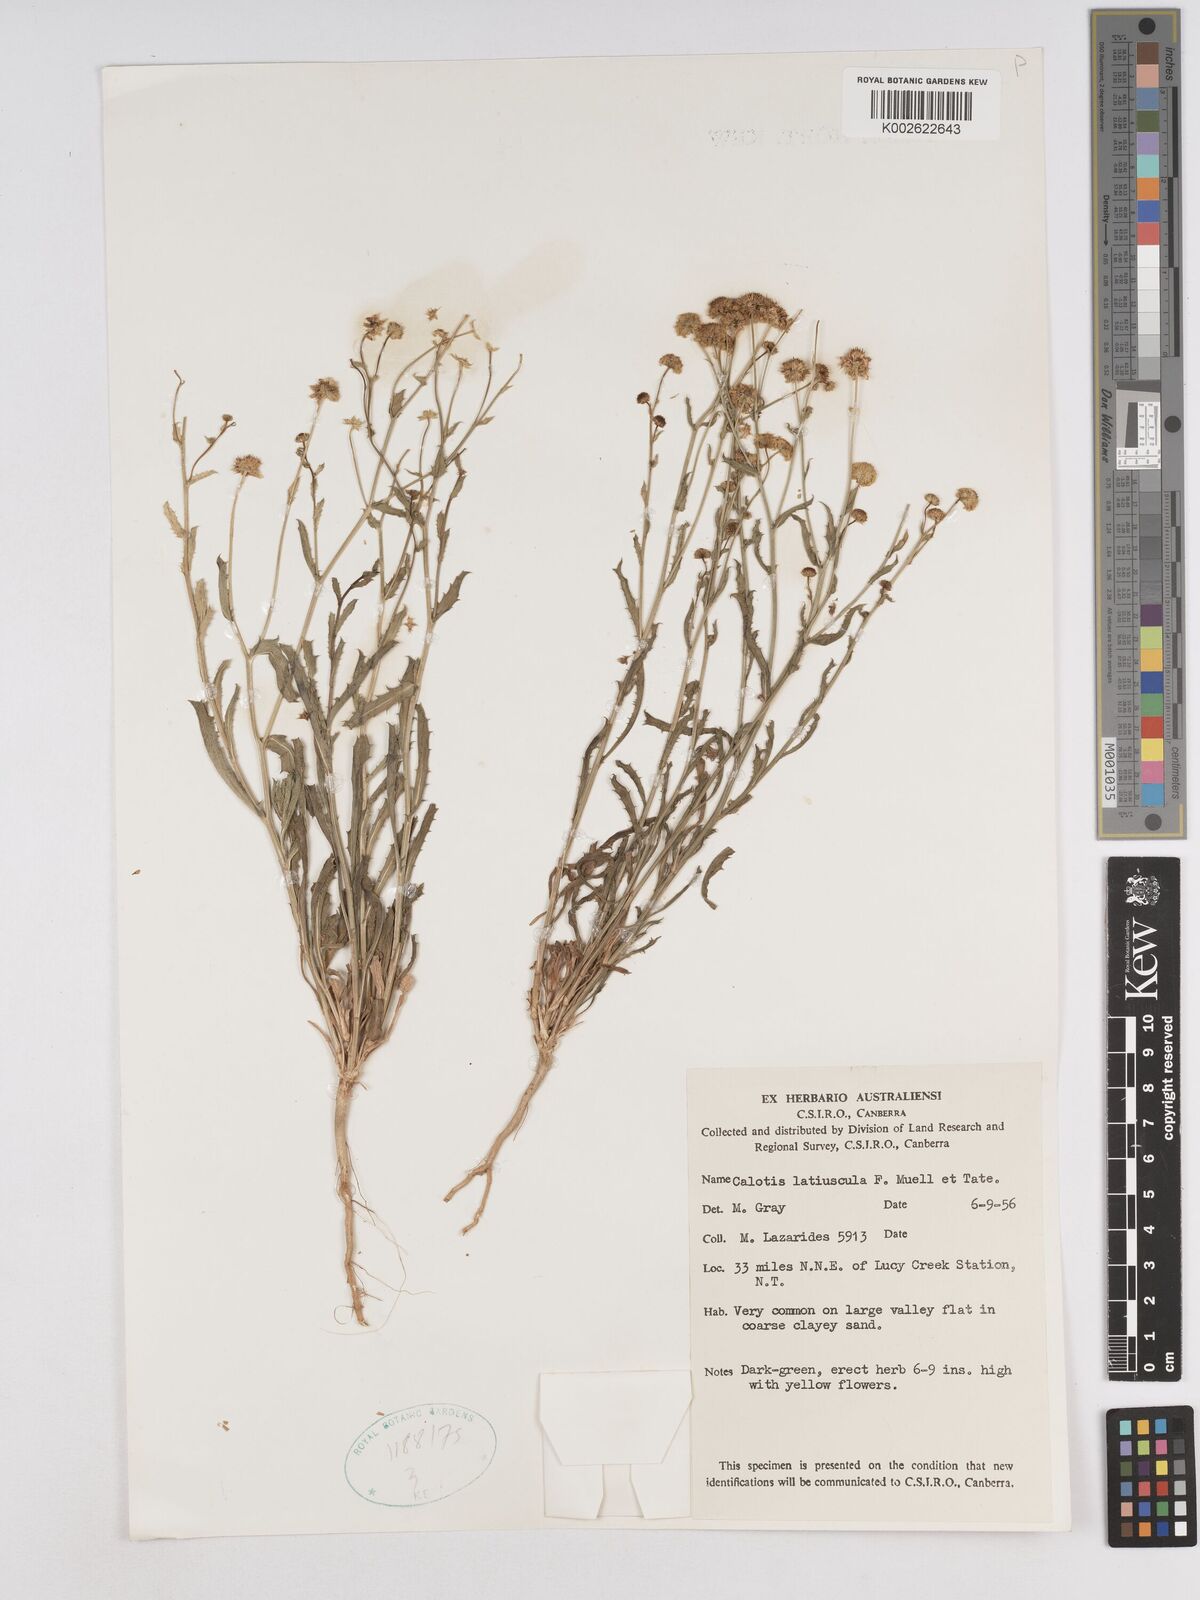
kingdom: Plantae
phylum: Tracheophyta
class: Magnoliopsida
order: Asterales
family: Asteraceae
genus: Calotis
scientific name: Calotis latiuscula
